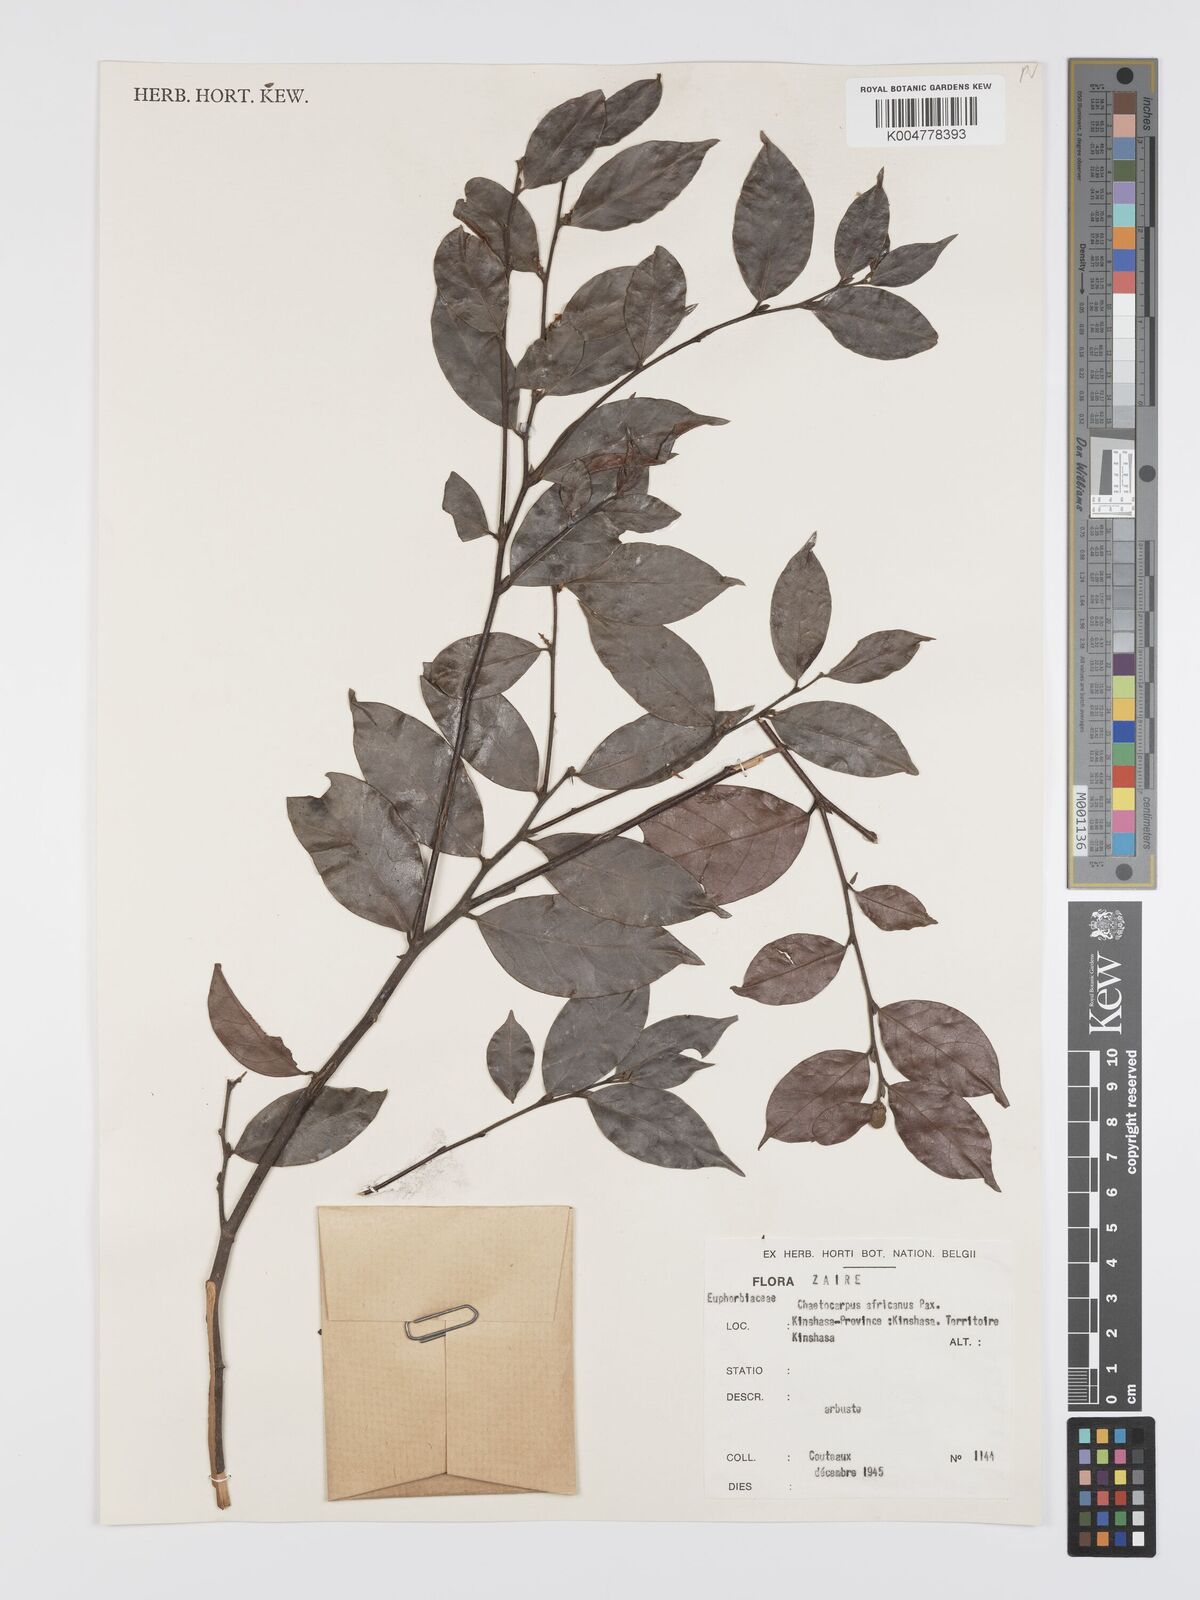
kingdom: Plantae
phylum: Tracheophyta
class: Magnoliopsida
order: Malpighiales
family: Peraceae
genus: Chaetocarpus
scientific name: Chaetocarpus africanus
